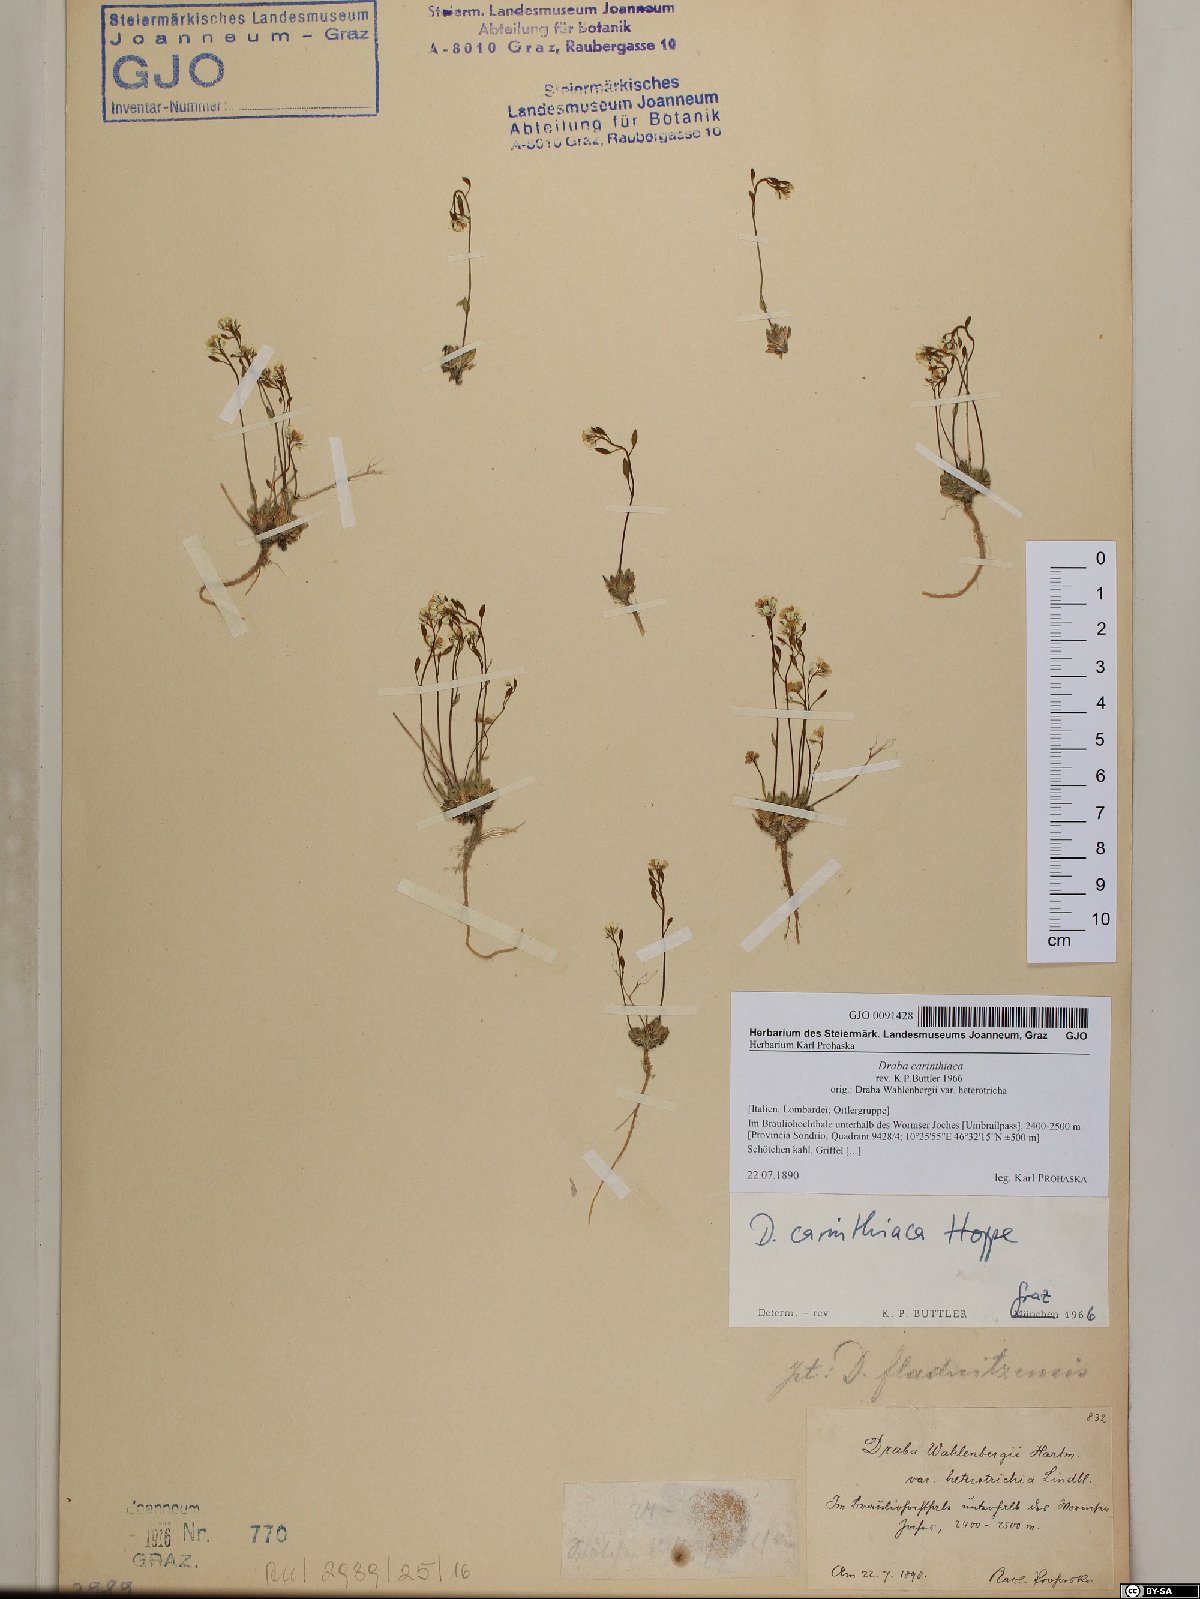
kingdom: Plantae
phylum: Tracheophyta
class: Magnoliopsida
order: Brassicales
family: Brassicaceae
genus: Draba
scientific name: Draba siliquosa
